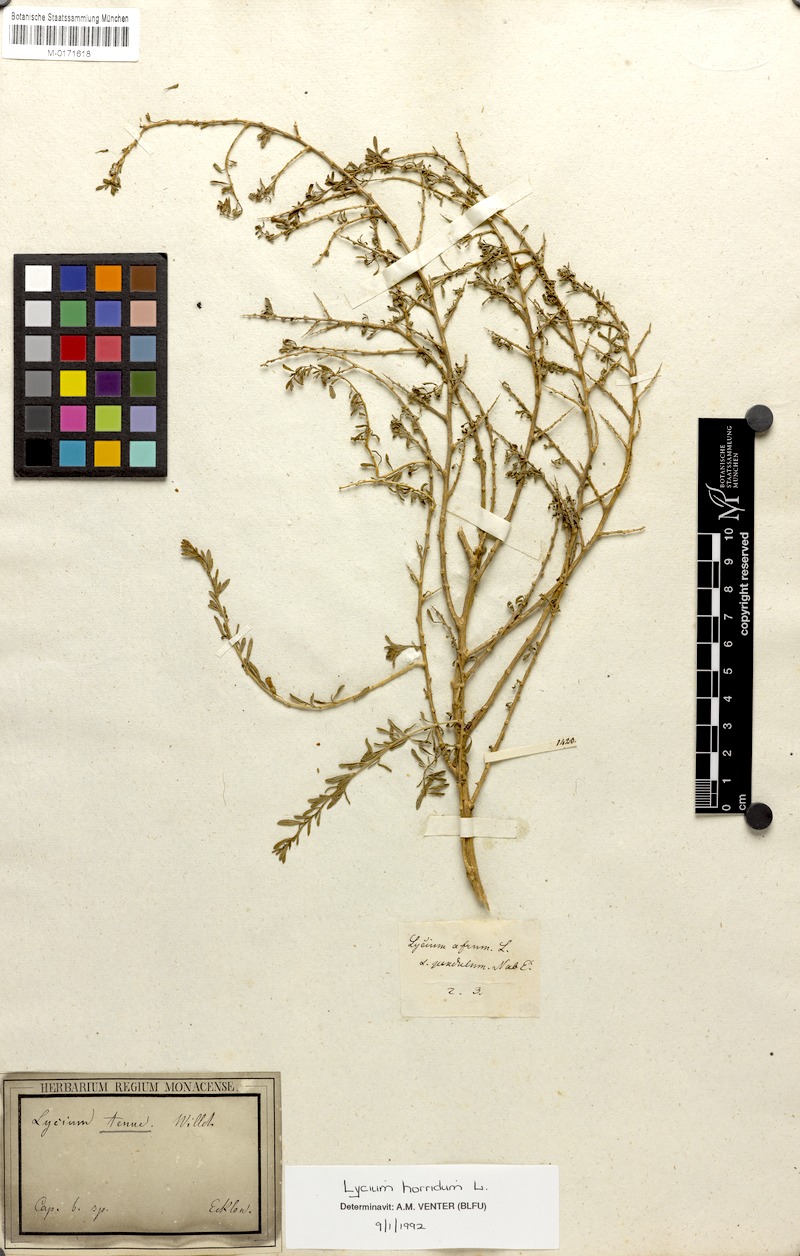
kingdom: Plantae
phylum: Tracheophyta
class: Magnoliopsida
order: Solanales
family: Solanaceae
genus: Lycium
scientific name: Lycium horridum
